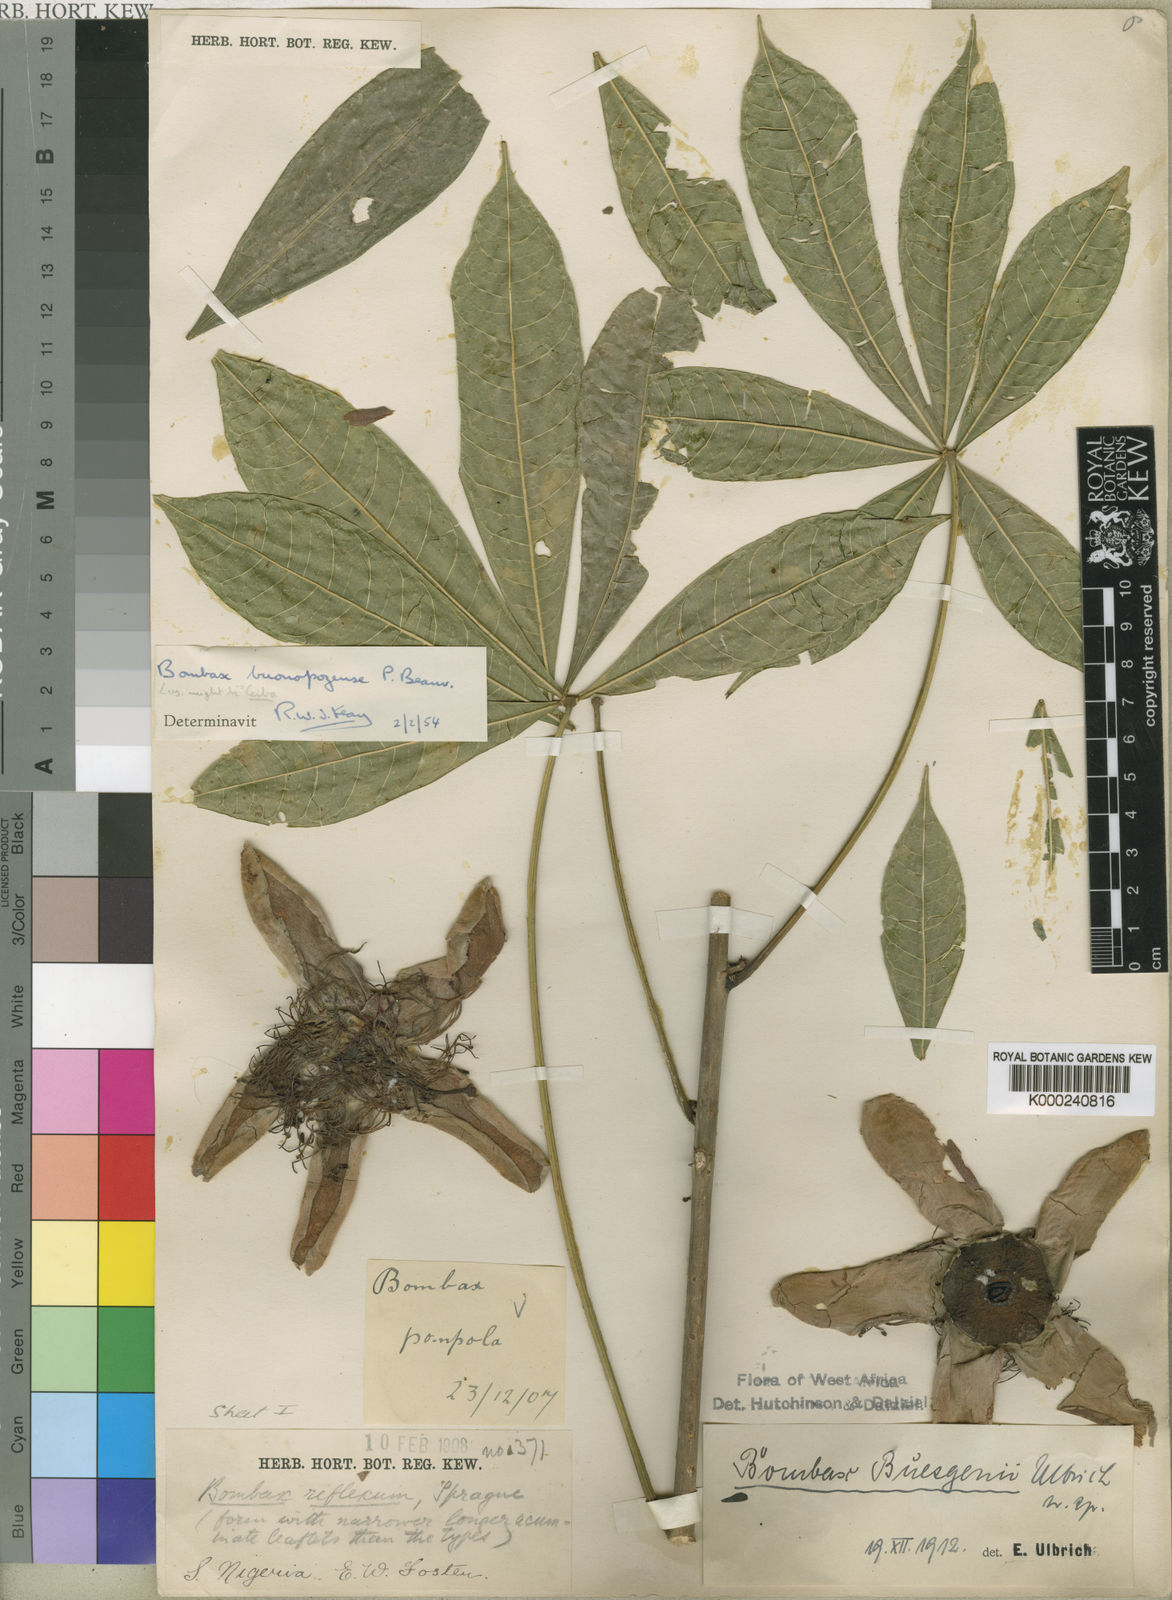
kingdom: Plantae
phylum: Tracheophyta
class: Magnoliopsida
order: Malvales
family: Malvaceae
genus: Bombax
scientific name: Bombax buonopozense
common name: Gold coast bombax
